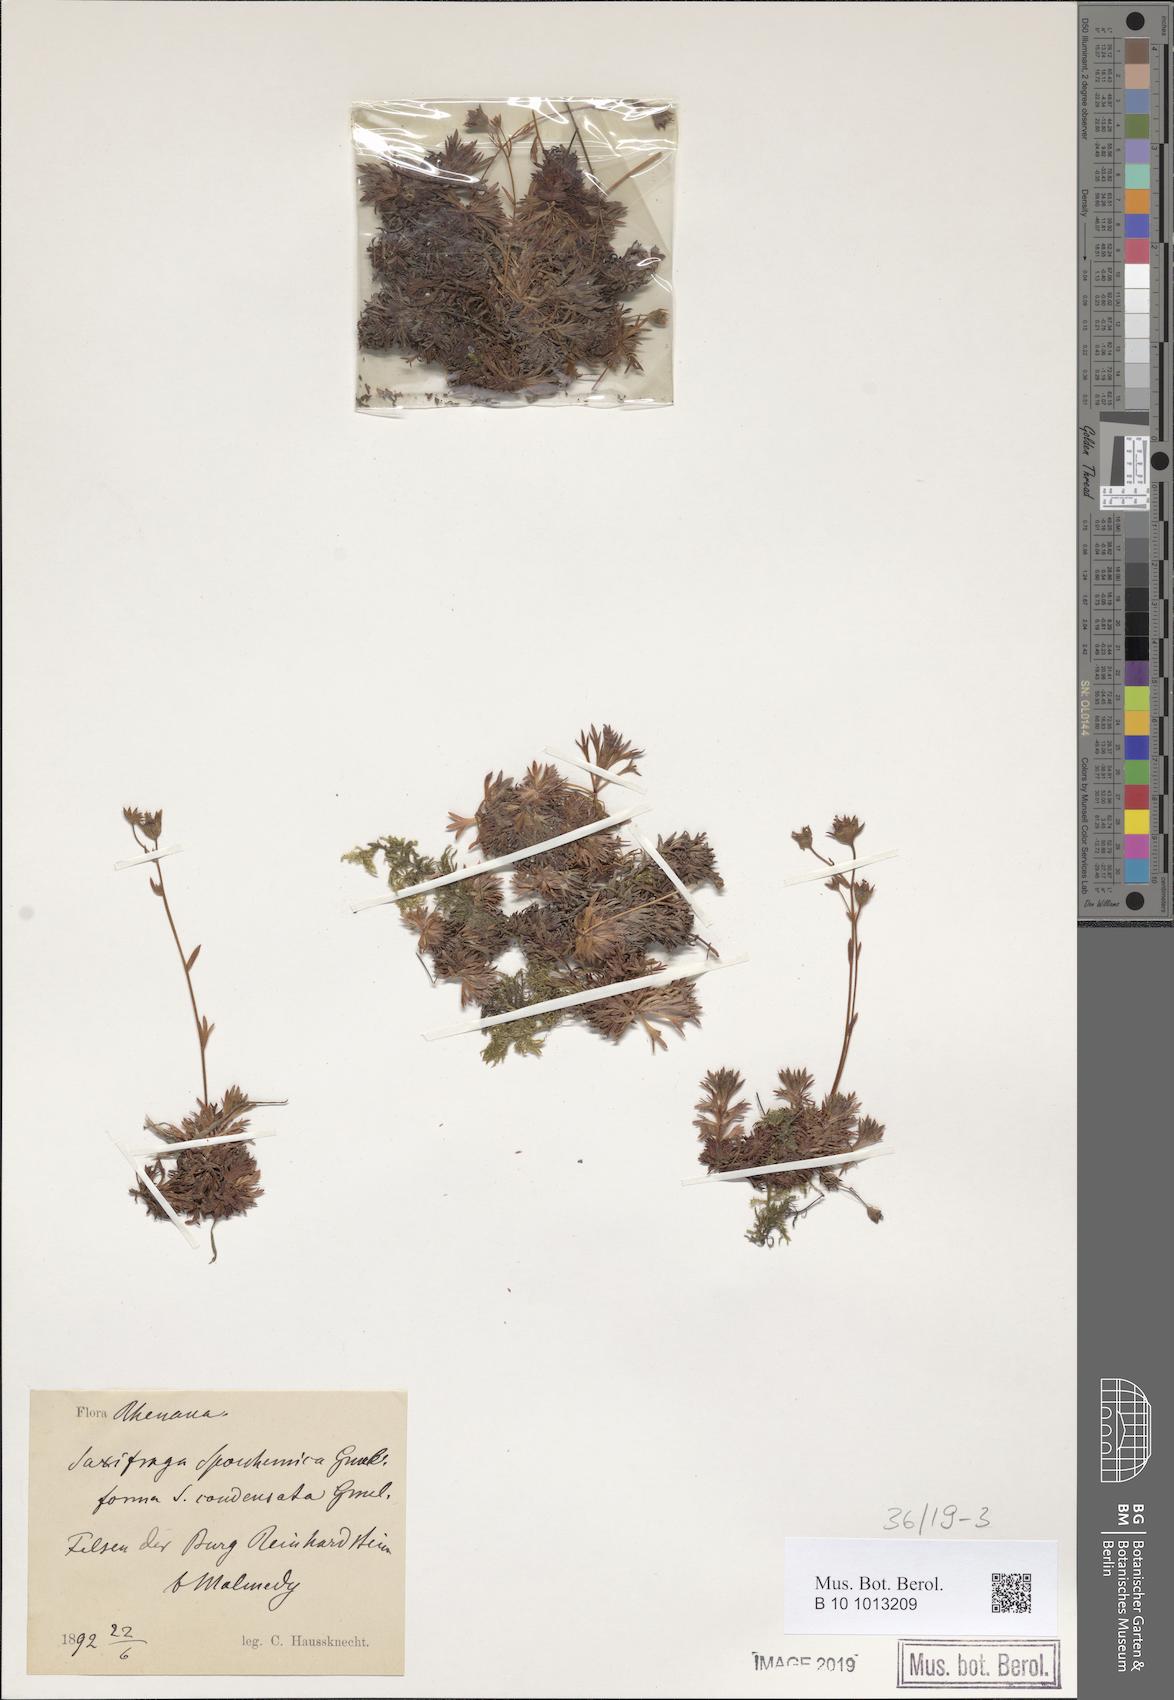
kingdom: Plantae
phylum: Tracheophyta
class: Magnoliopsida
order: Saxifragales
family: Saxifragaceae
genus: Saxifraga
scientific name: Saxifraga rosacea
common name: Irish saxifrage
